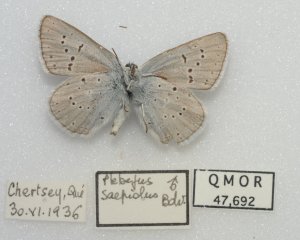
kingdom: Animalia
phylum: Arthropoda
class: Insecta
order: Lepidoptera
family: Lycaenidae
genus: Plebejus
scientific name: Plebejus saepiolus
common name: Greenish Blue
